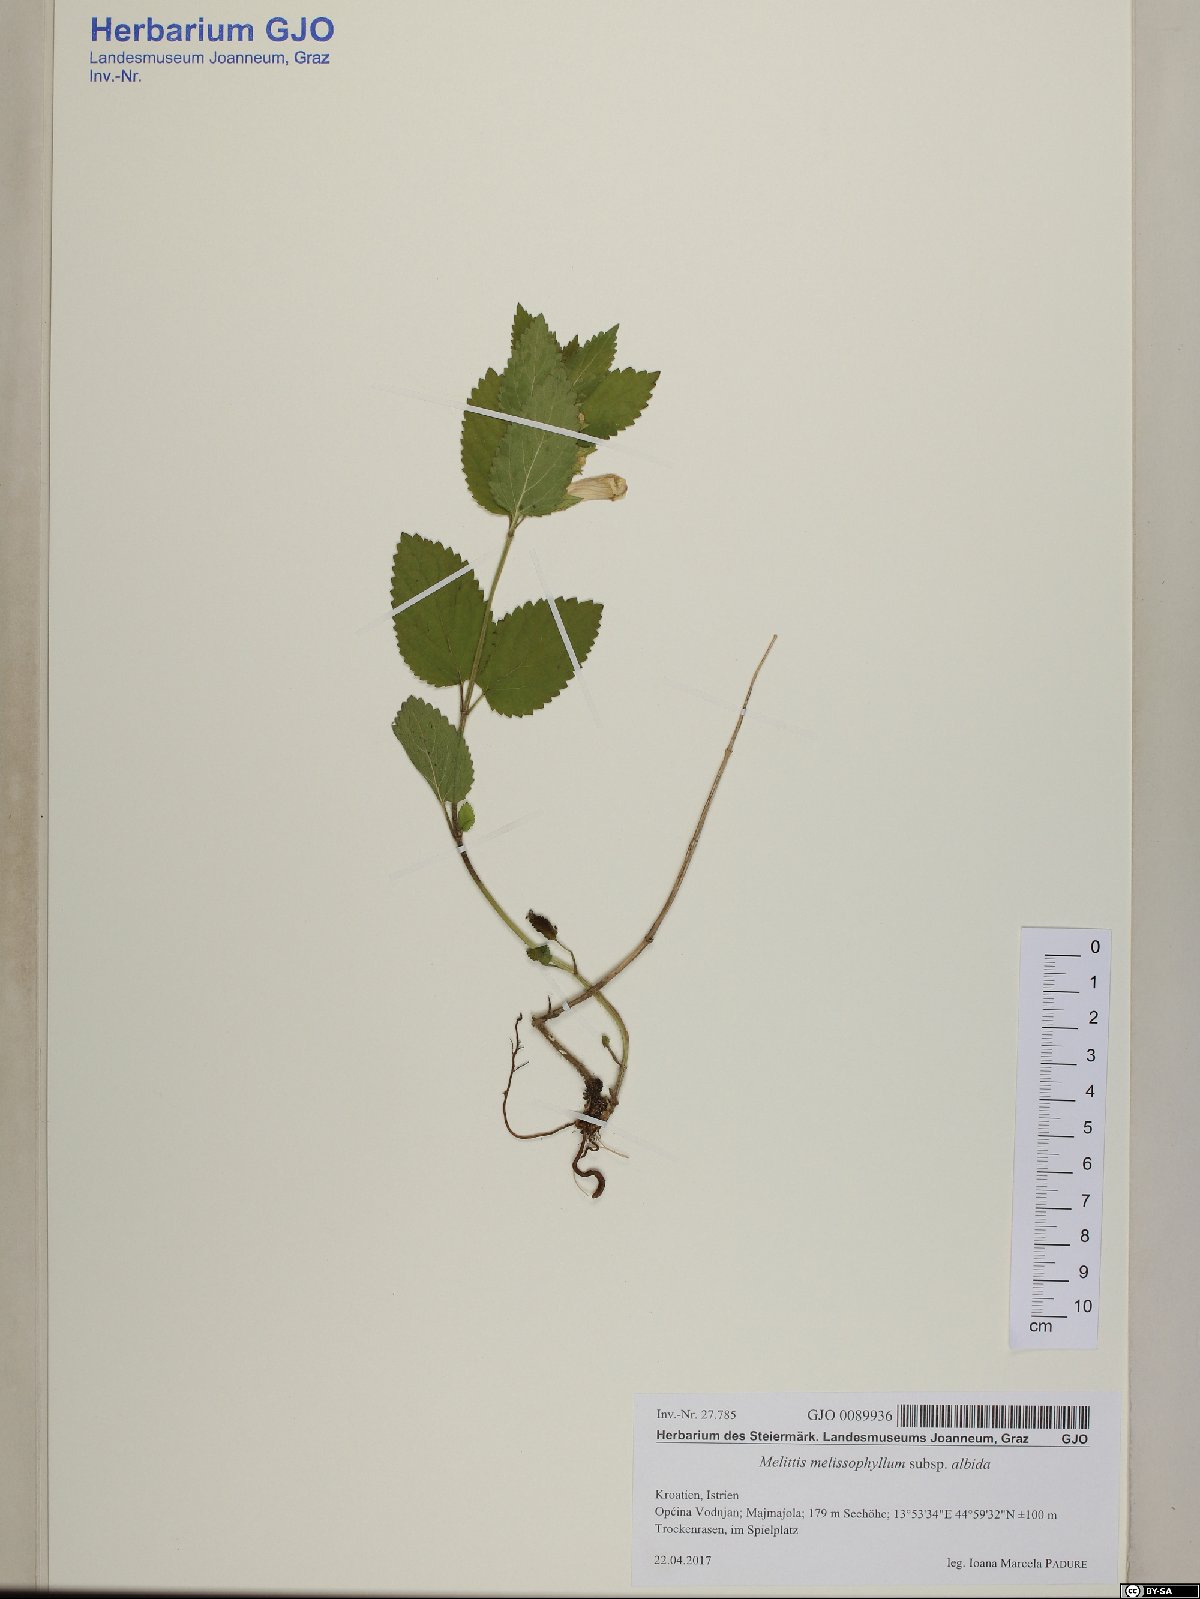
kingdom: Plantae
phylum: Tracheophyta
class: Magnoliopsida
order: Lamiales
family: Lamiaceae
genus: Melittis
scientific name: Melittis melissophyllum
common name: Bastard balm
